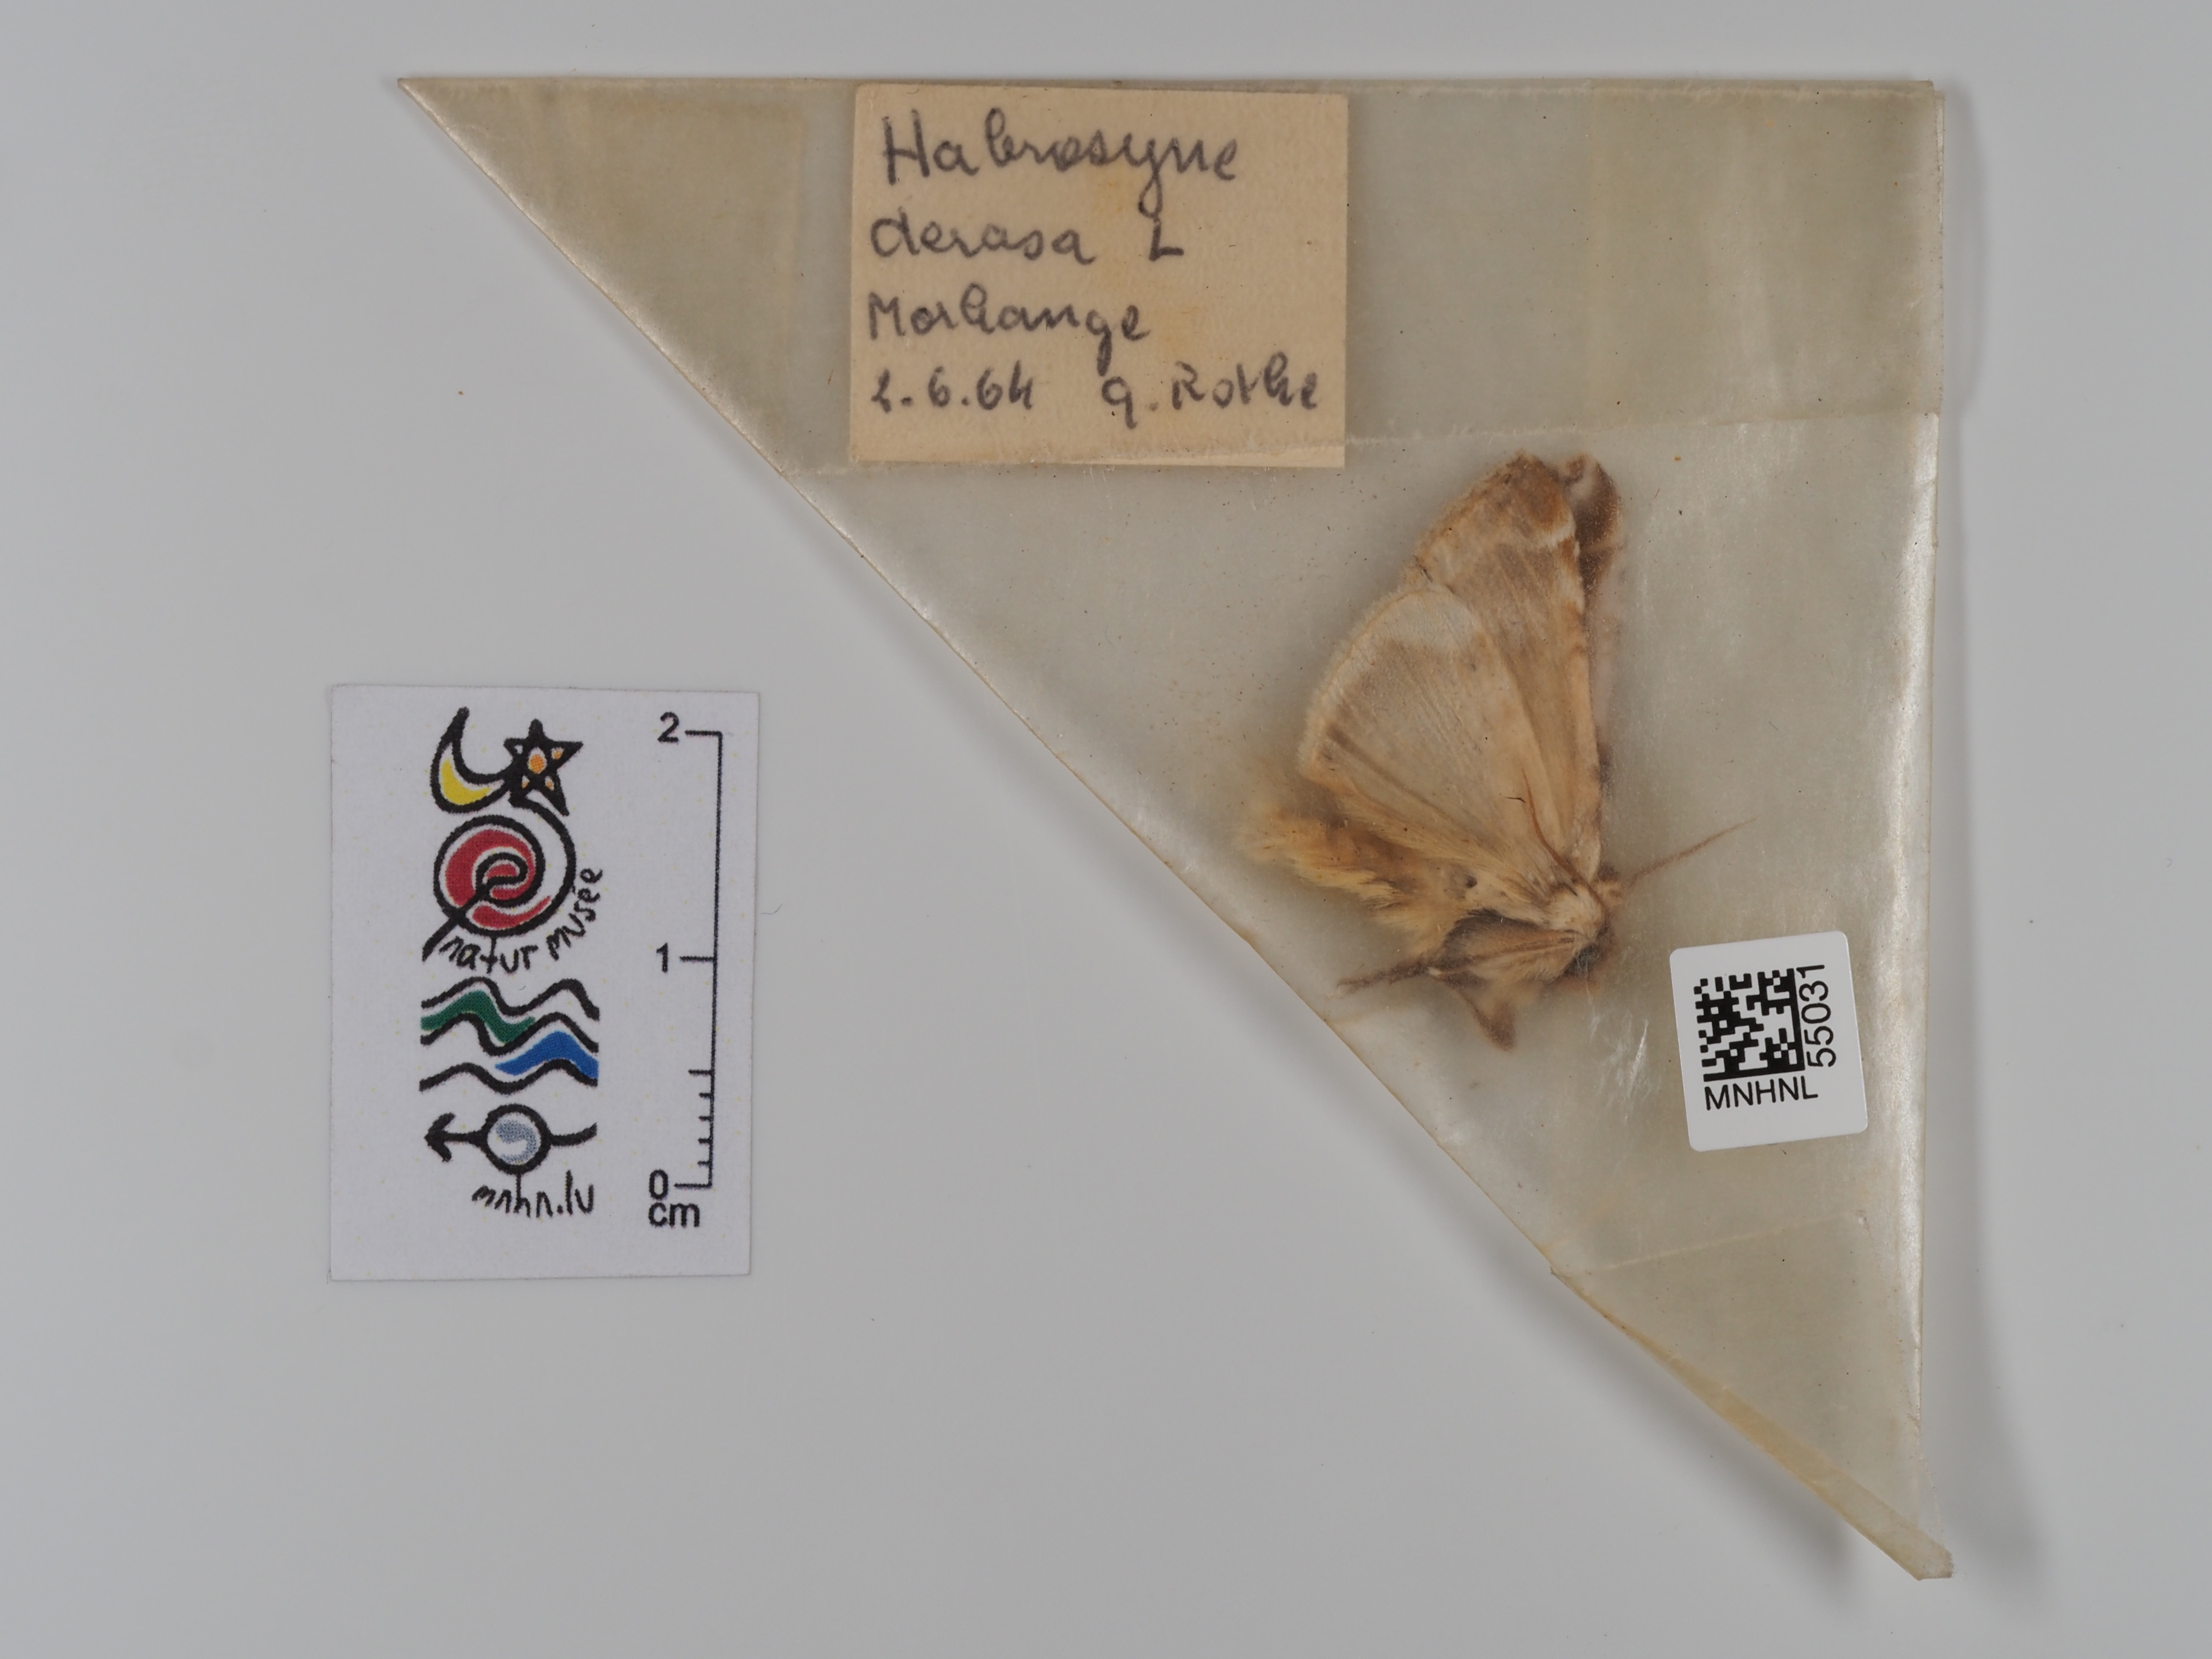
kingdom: Animalia
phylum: Arthropoda
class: Insecta
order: Lepidoptera
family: Drepanidae
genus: Habrosyne
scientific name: Habrosyne pyritoides
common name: Buff arches
